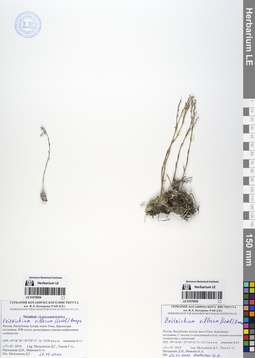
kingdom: Plantae
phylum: Tracheophyta
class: Magnoliopsida
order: Boraginales
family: Boraginaceae
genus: Eritrichium
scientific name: Eritrichium villosum
